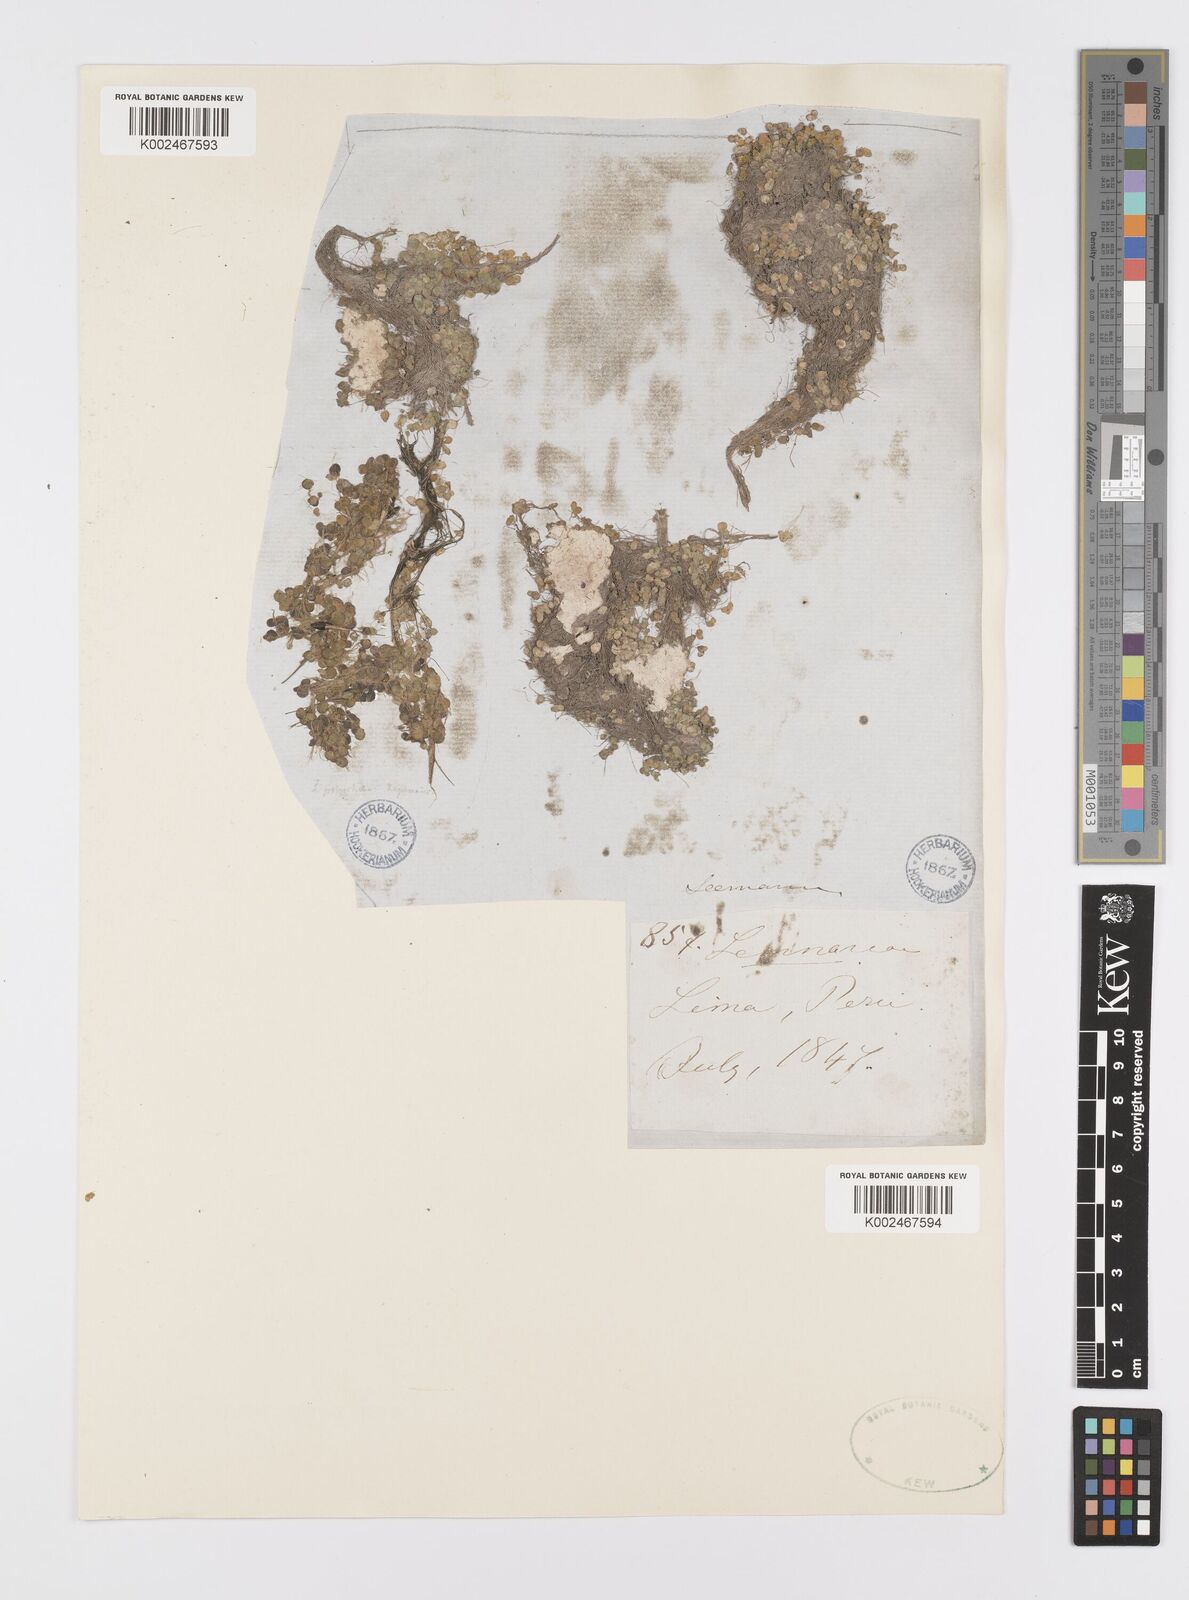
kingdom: Plantae
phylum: Tracheophyta
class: Liliopsida
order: Alismatales
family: Araceae
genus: Spirodela
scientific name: Spirodela polyrhiza
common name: Great duckweed
